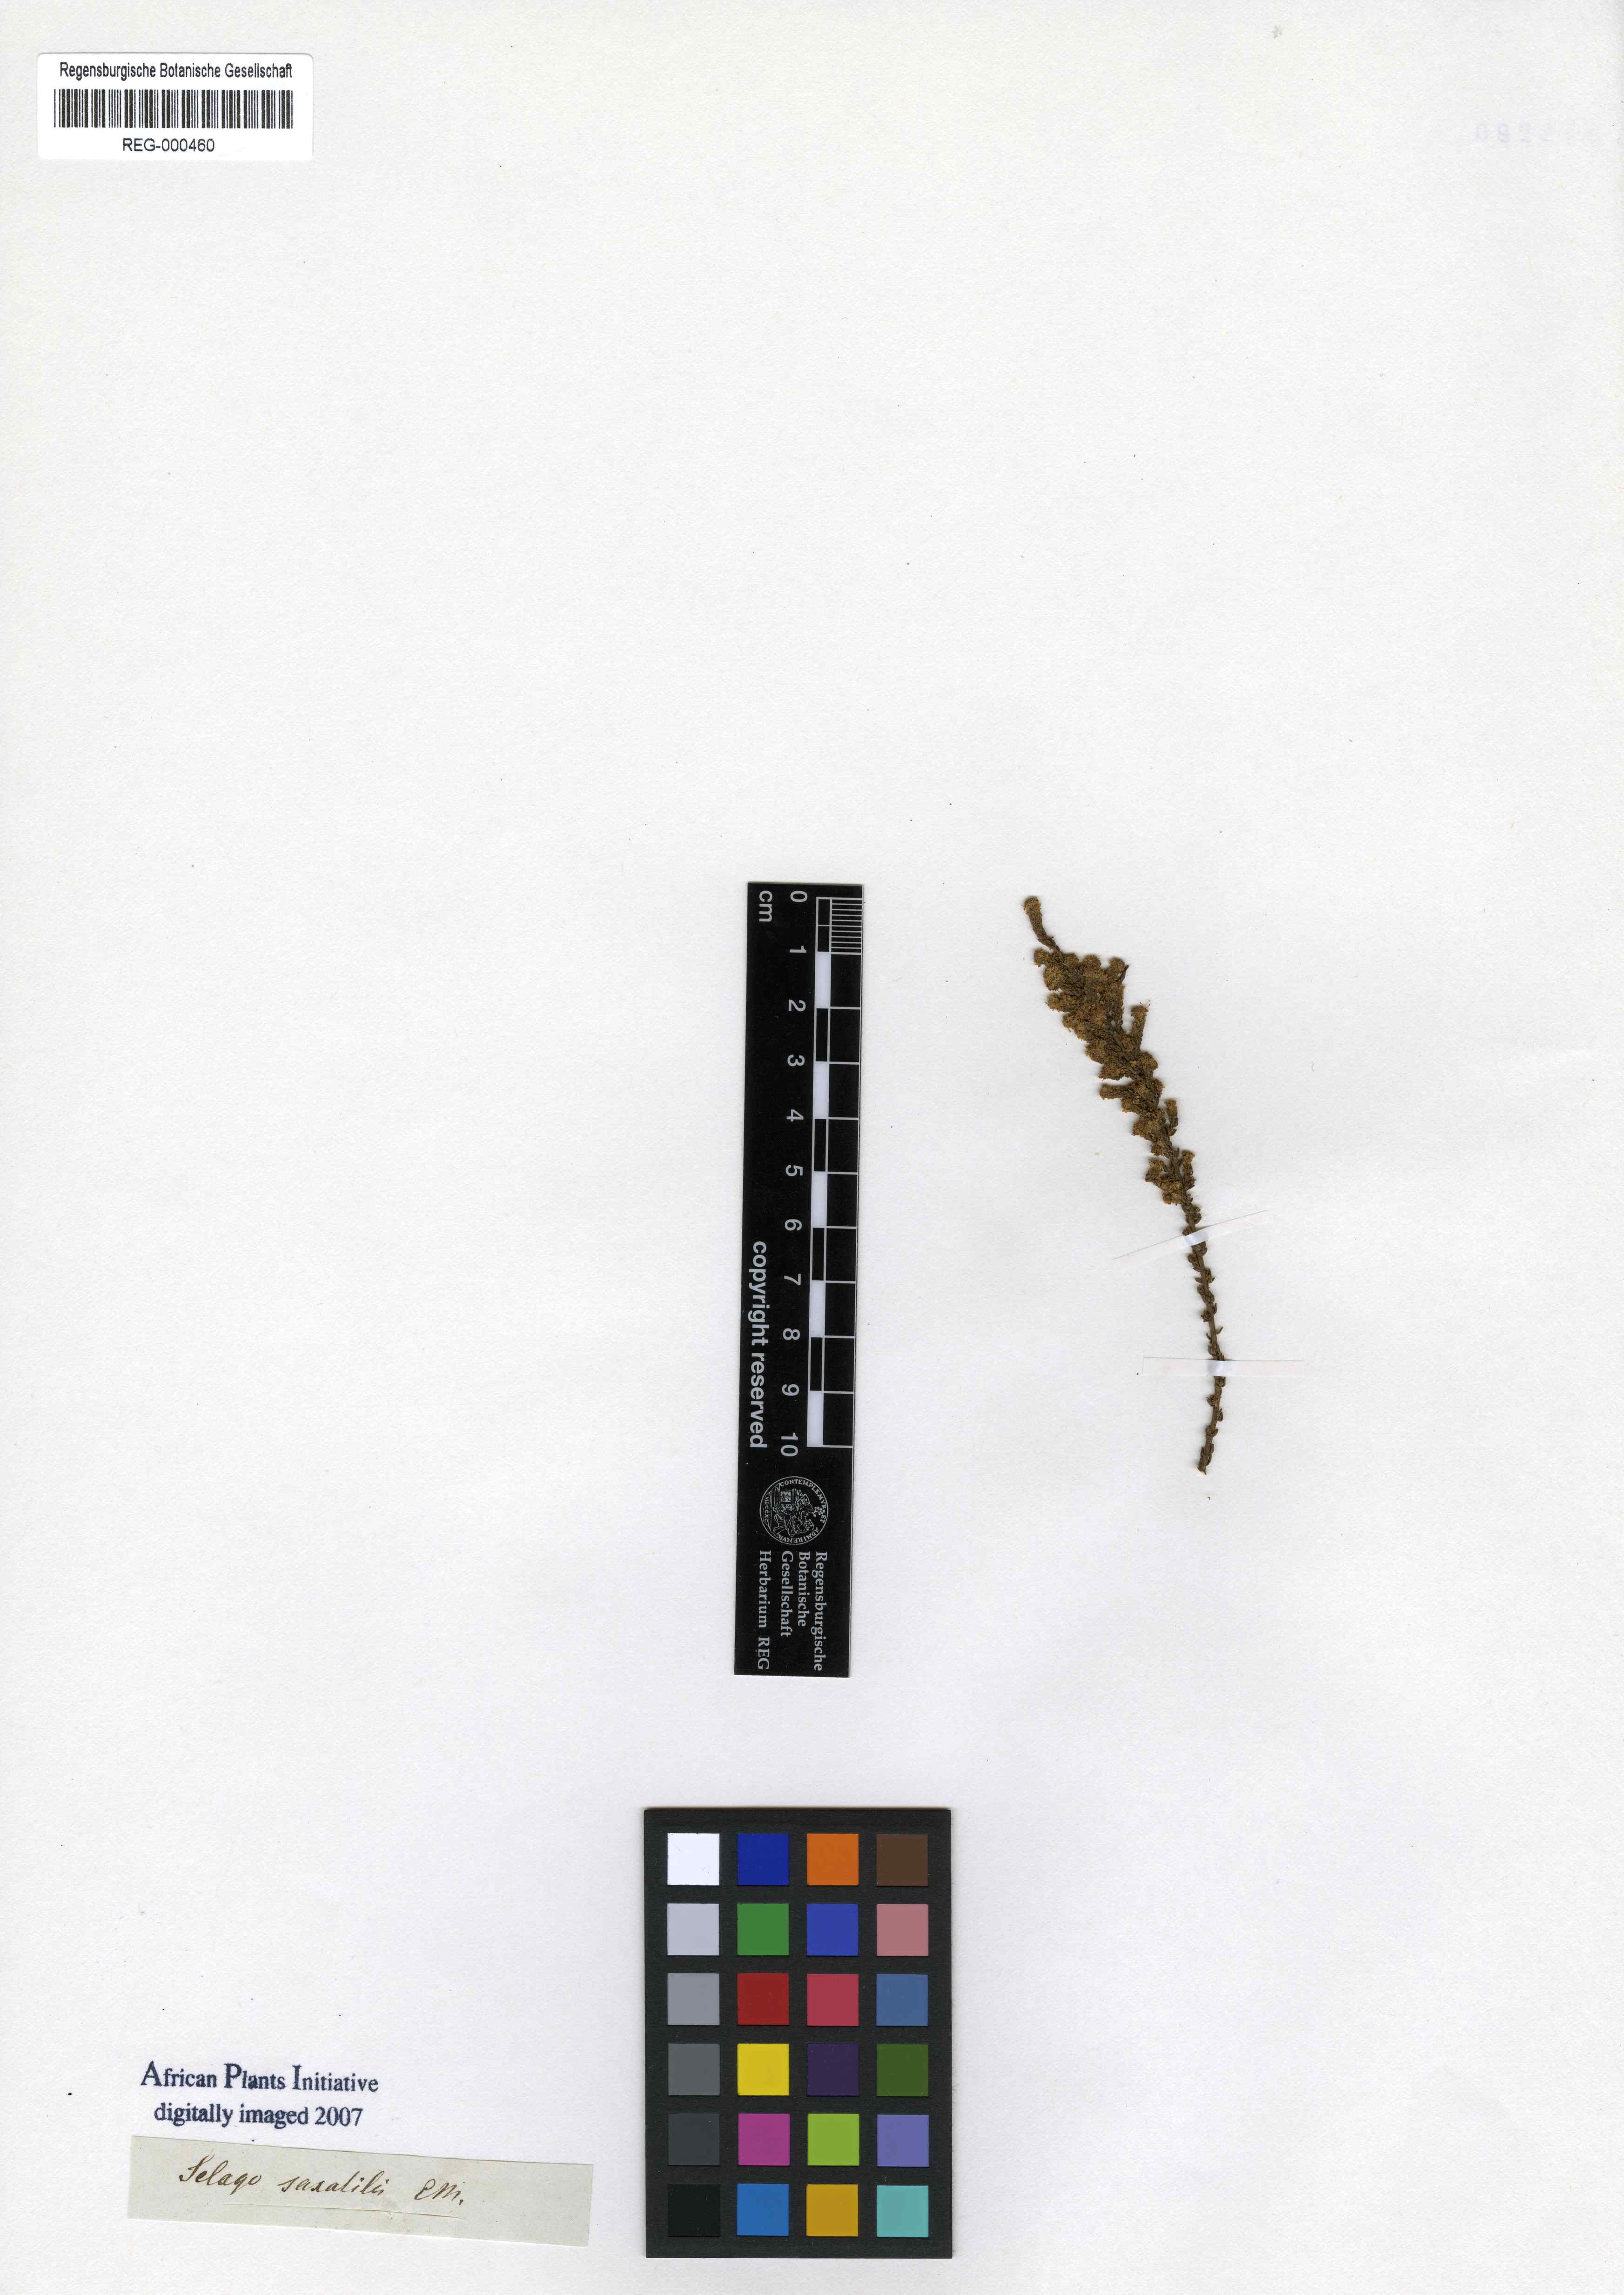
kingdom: Plantae
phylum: Tracheophyta
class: Magnoliopsida
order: Lamiales
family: Scrophulariaceae
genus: Selago
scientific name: Selago saxatilis
